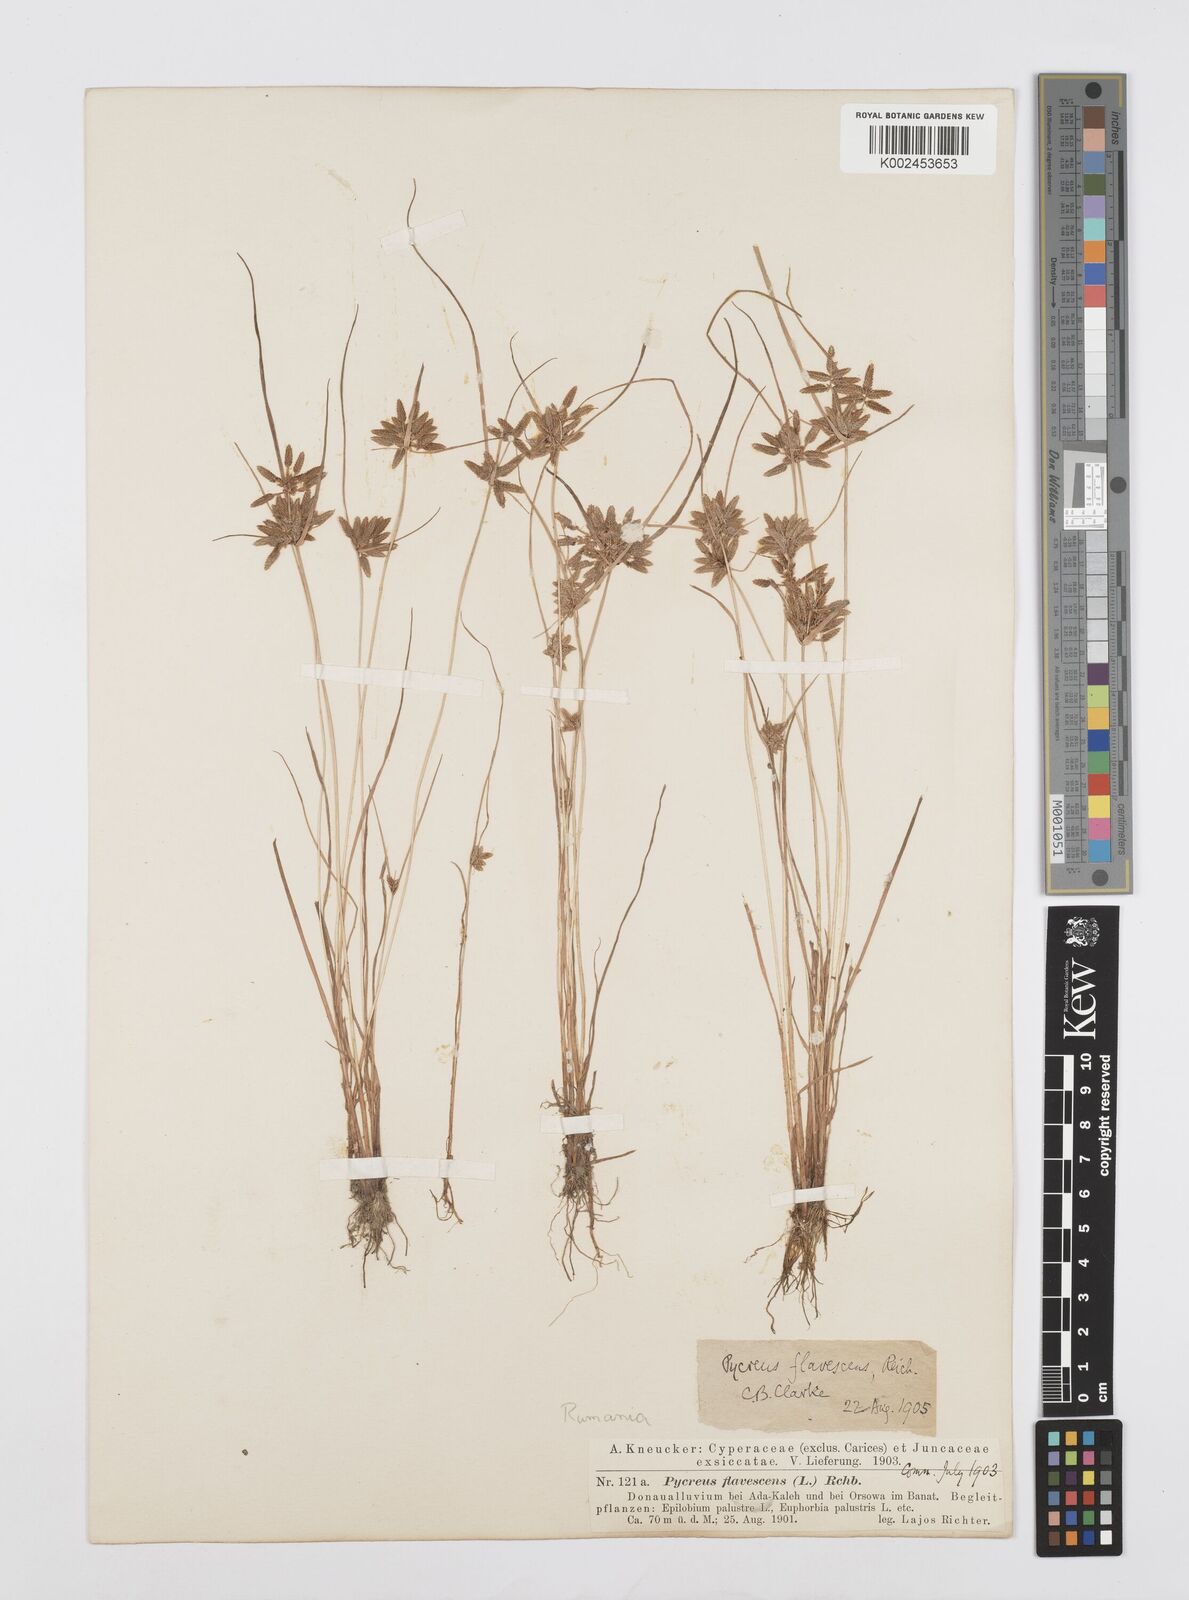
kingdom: Plantae
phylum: Tracheophyta
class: Liliopsida
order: Poales
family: Cyperaceae
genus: Cyperus
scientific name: Cyperus flavescens
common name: Yellow galingale
